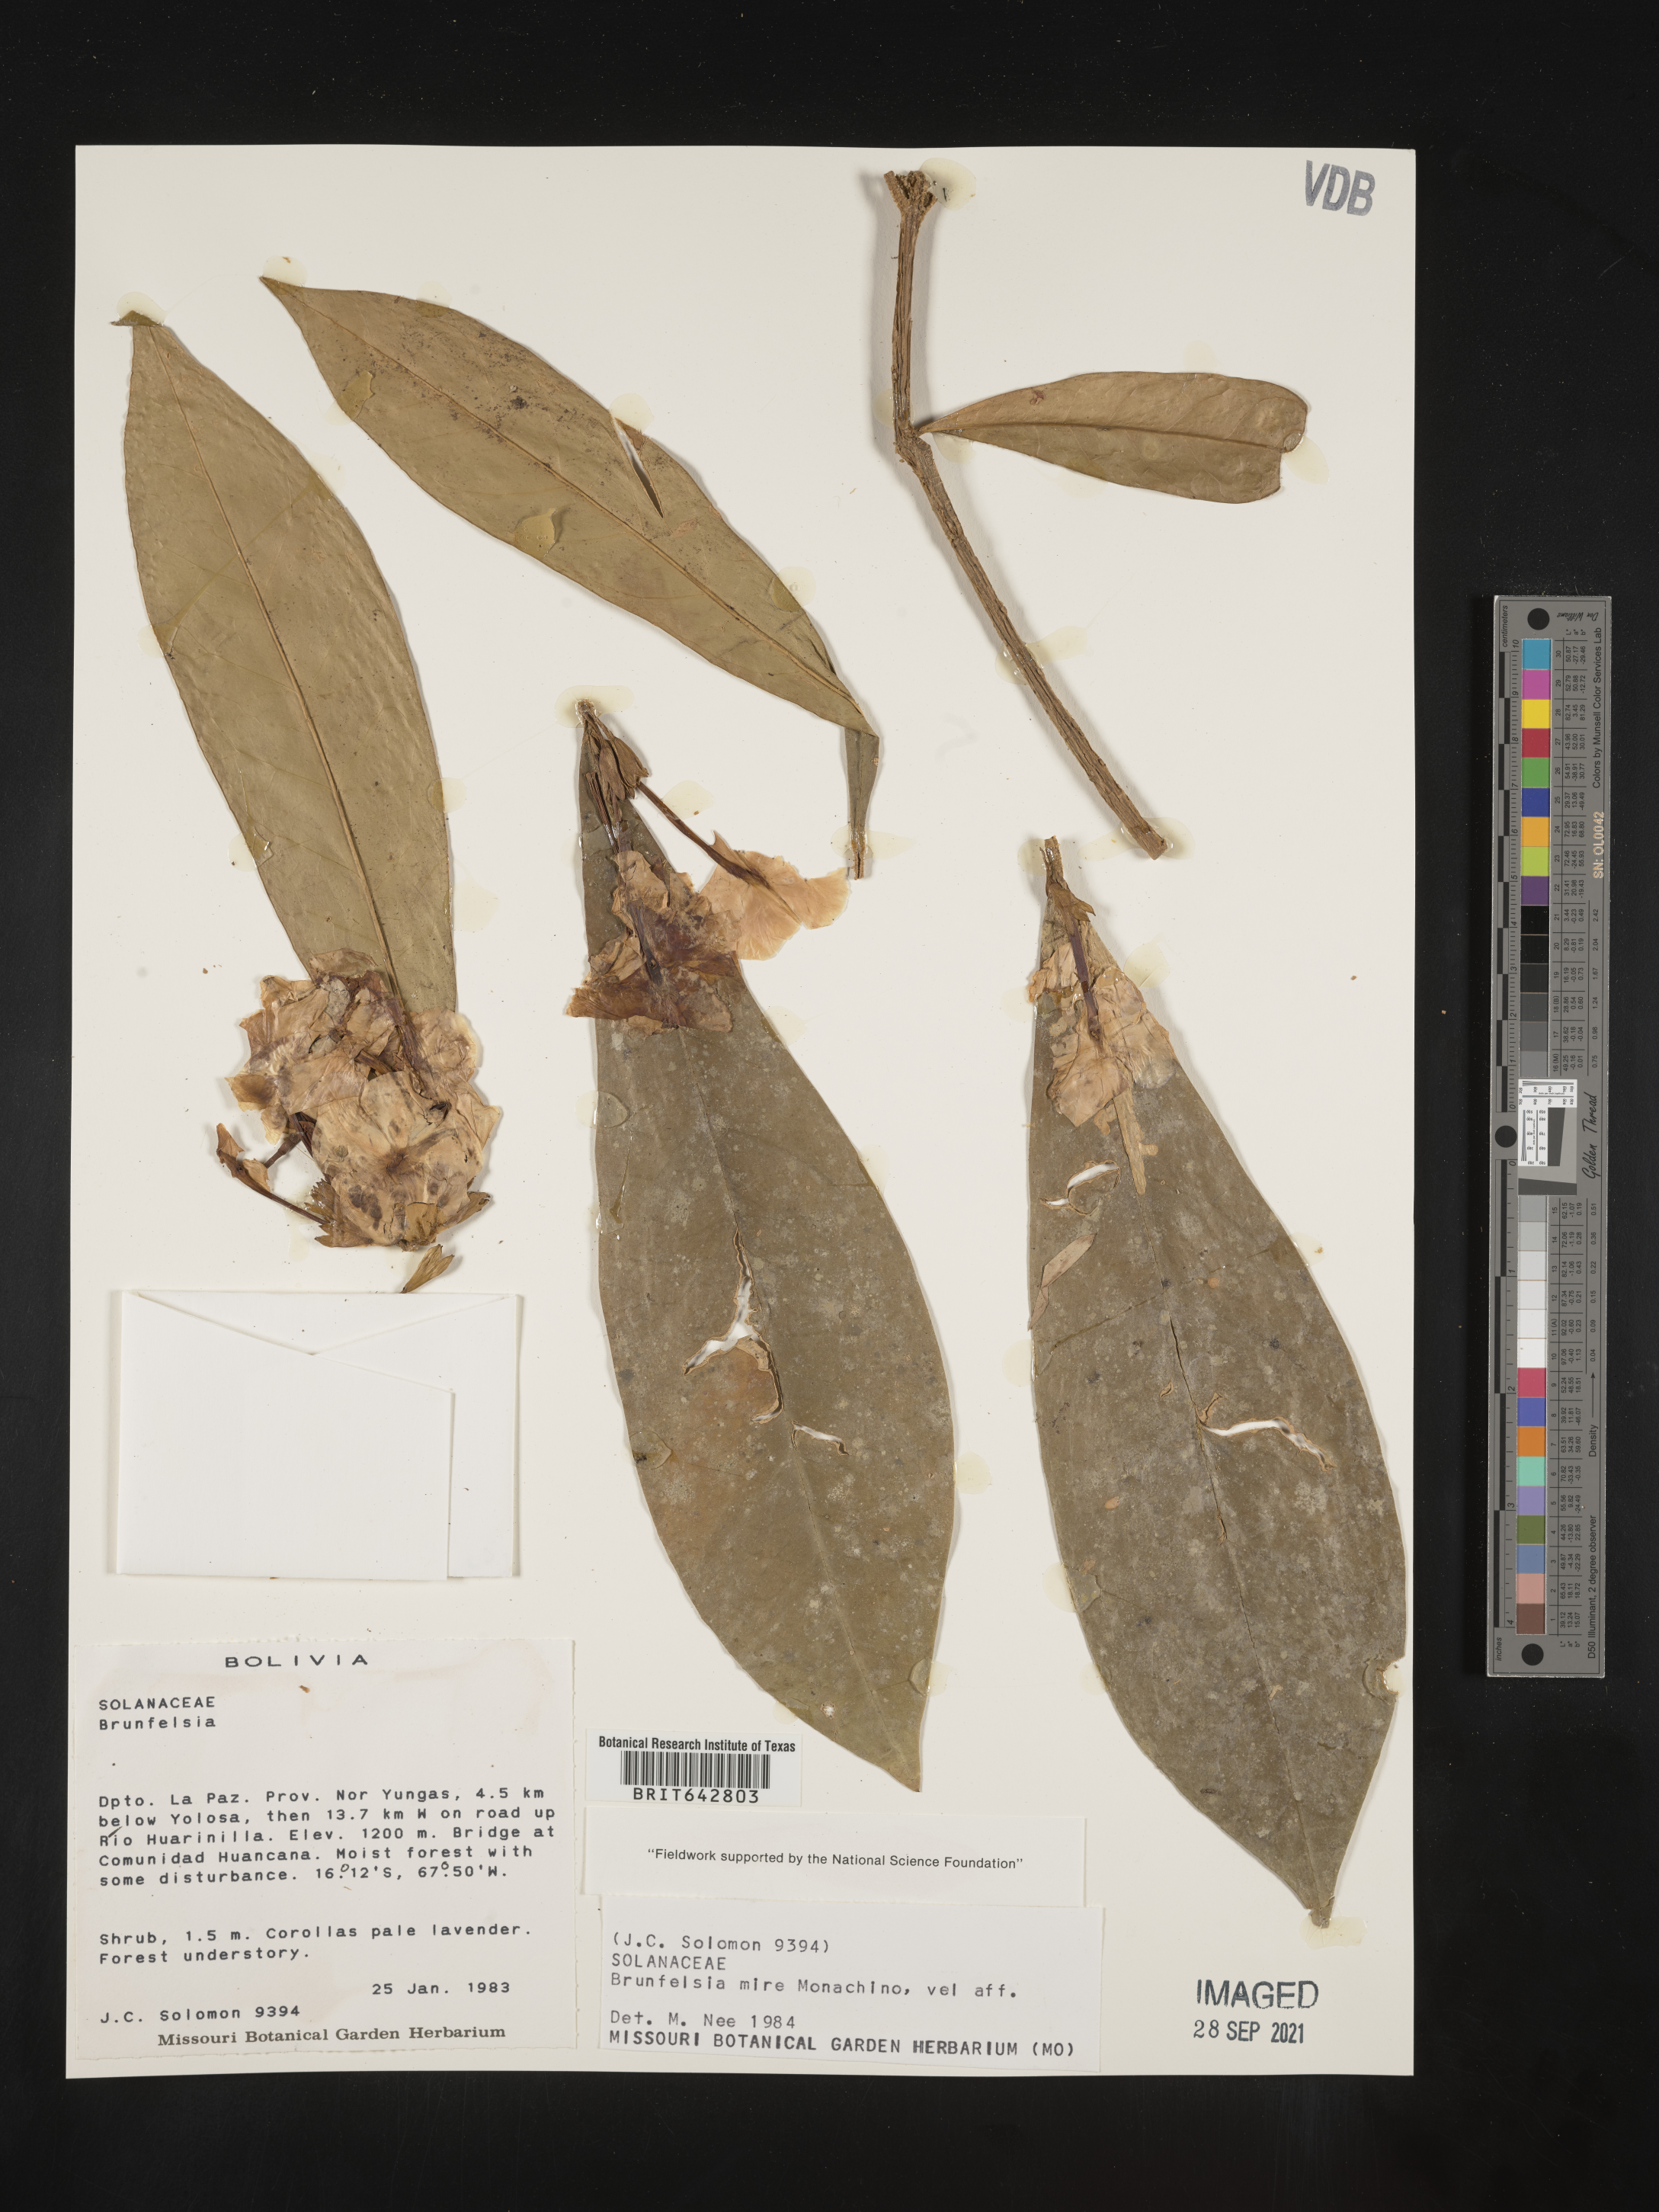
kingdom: Plantae
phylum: Tracheophyta
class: Magnoliopsida
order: Solanales
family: Solanaceae
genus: Brunfelsia
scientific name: Brunfelsia
